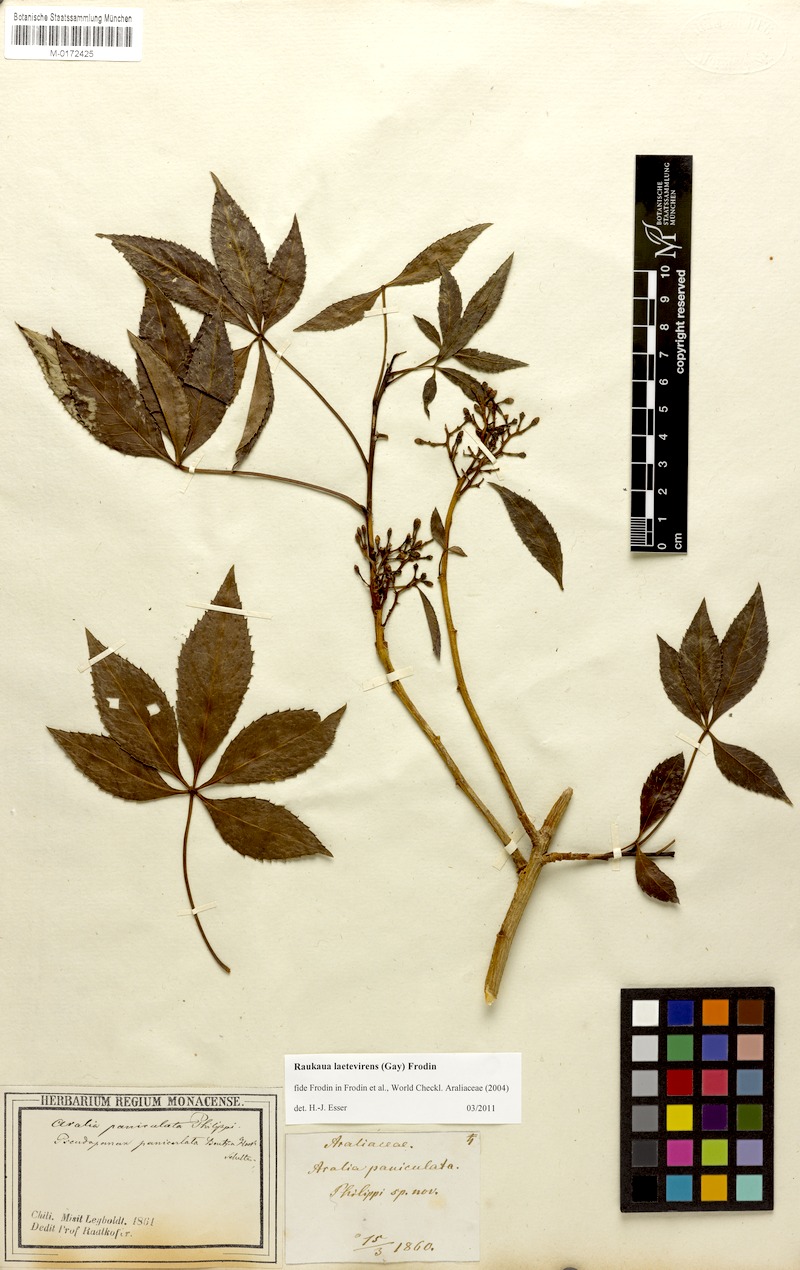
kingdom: Plantae
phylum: Tracheophyta
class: Magnoliopsida
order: Apiales
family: Araliaceae
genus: Raukaua
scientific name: Raukaua laetevirens
